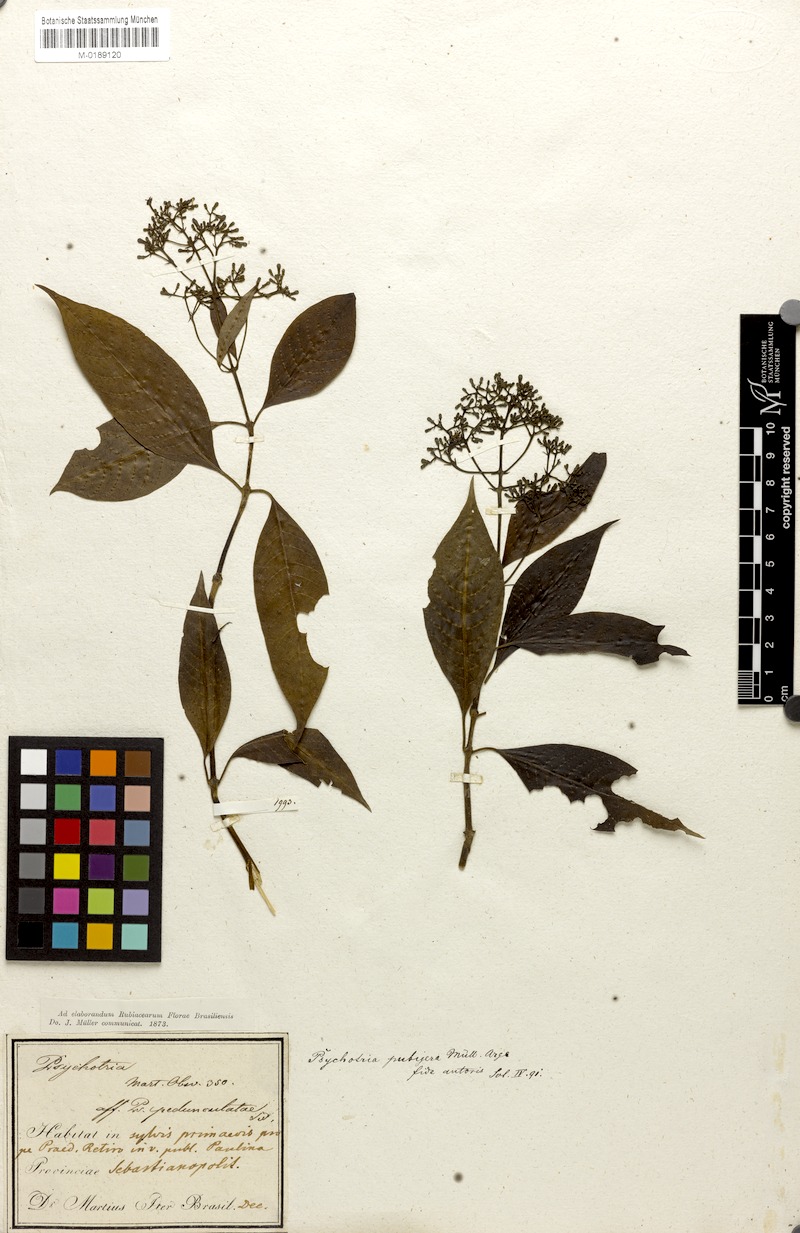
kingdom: Plantae
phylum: Tracheophyta
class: Magnoliopsida
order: Gentianales
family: Rubiaceae
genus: Psychotria
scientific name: Psychotria nemorosa
